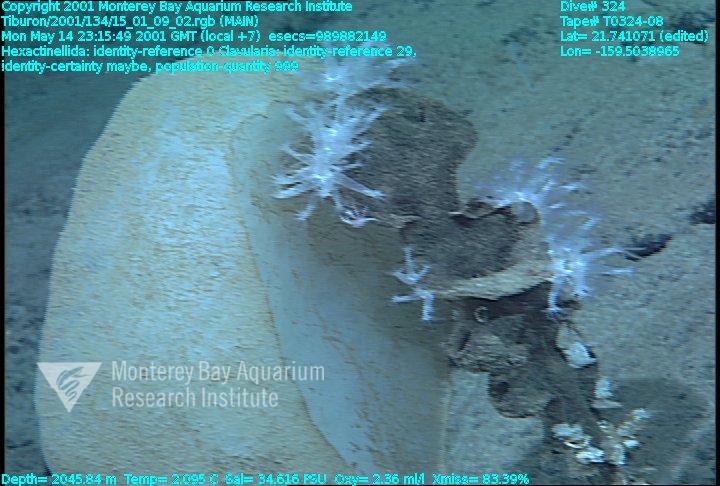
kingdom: Animalia
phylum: Porifera
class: Hexactinellida
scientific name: Hexactinellida
